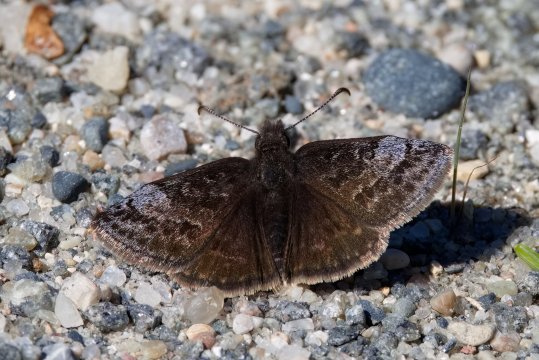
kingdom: Animalia
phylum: Arthropoda
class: Insecta
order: Lepidoptera
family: Hesperiidae
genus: Erynnis
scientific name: Erynnis icelus
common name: Dreamy Duskywing
